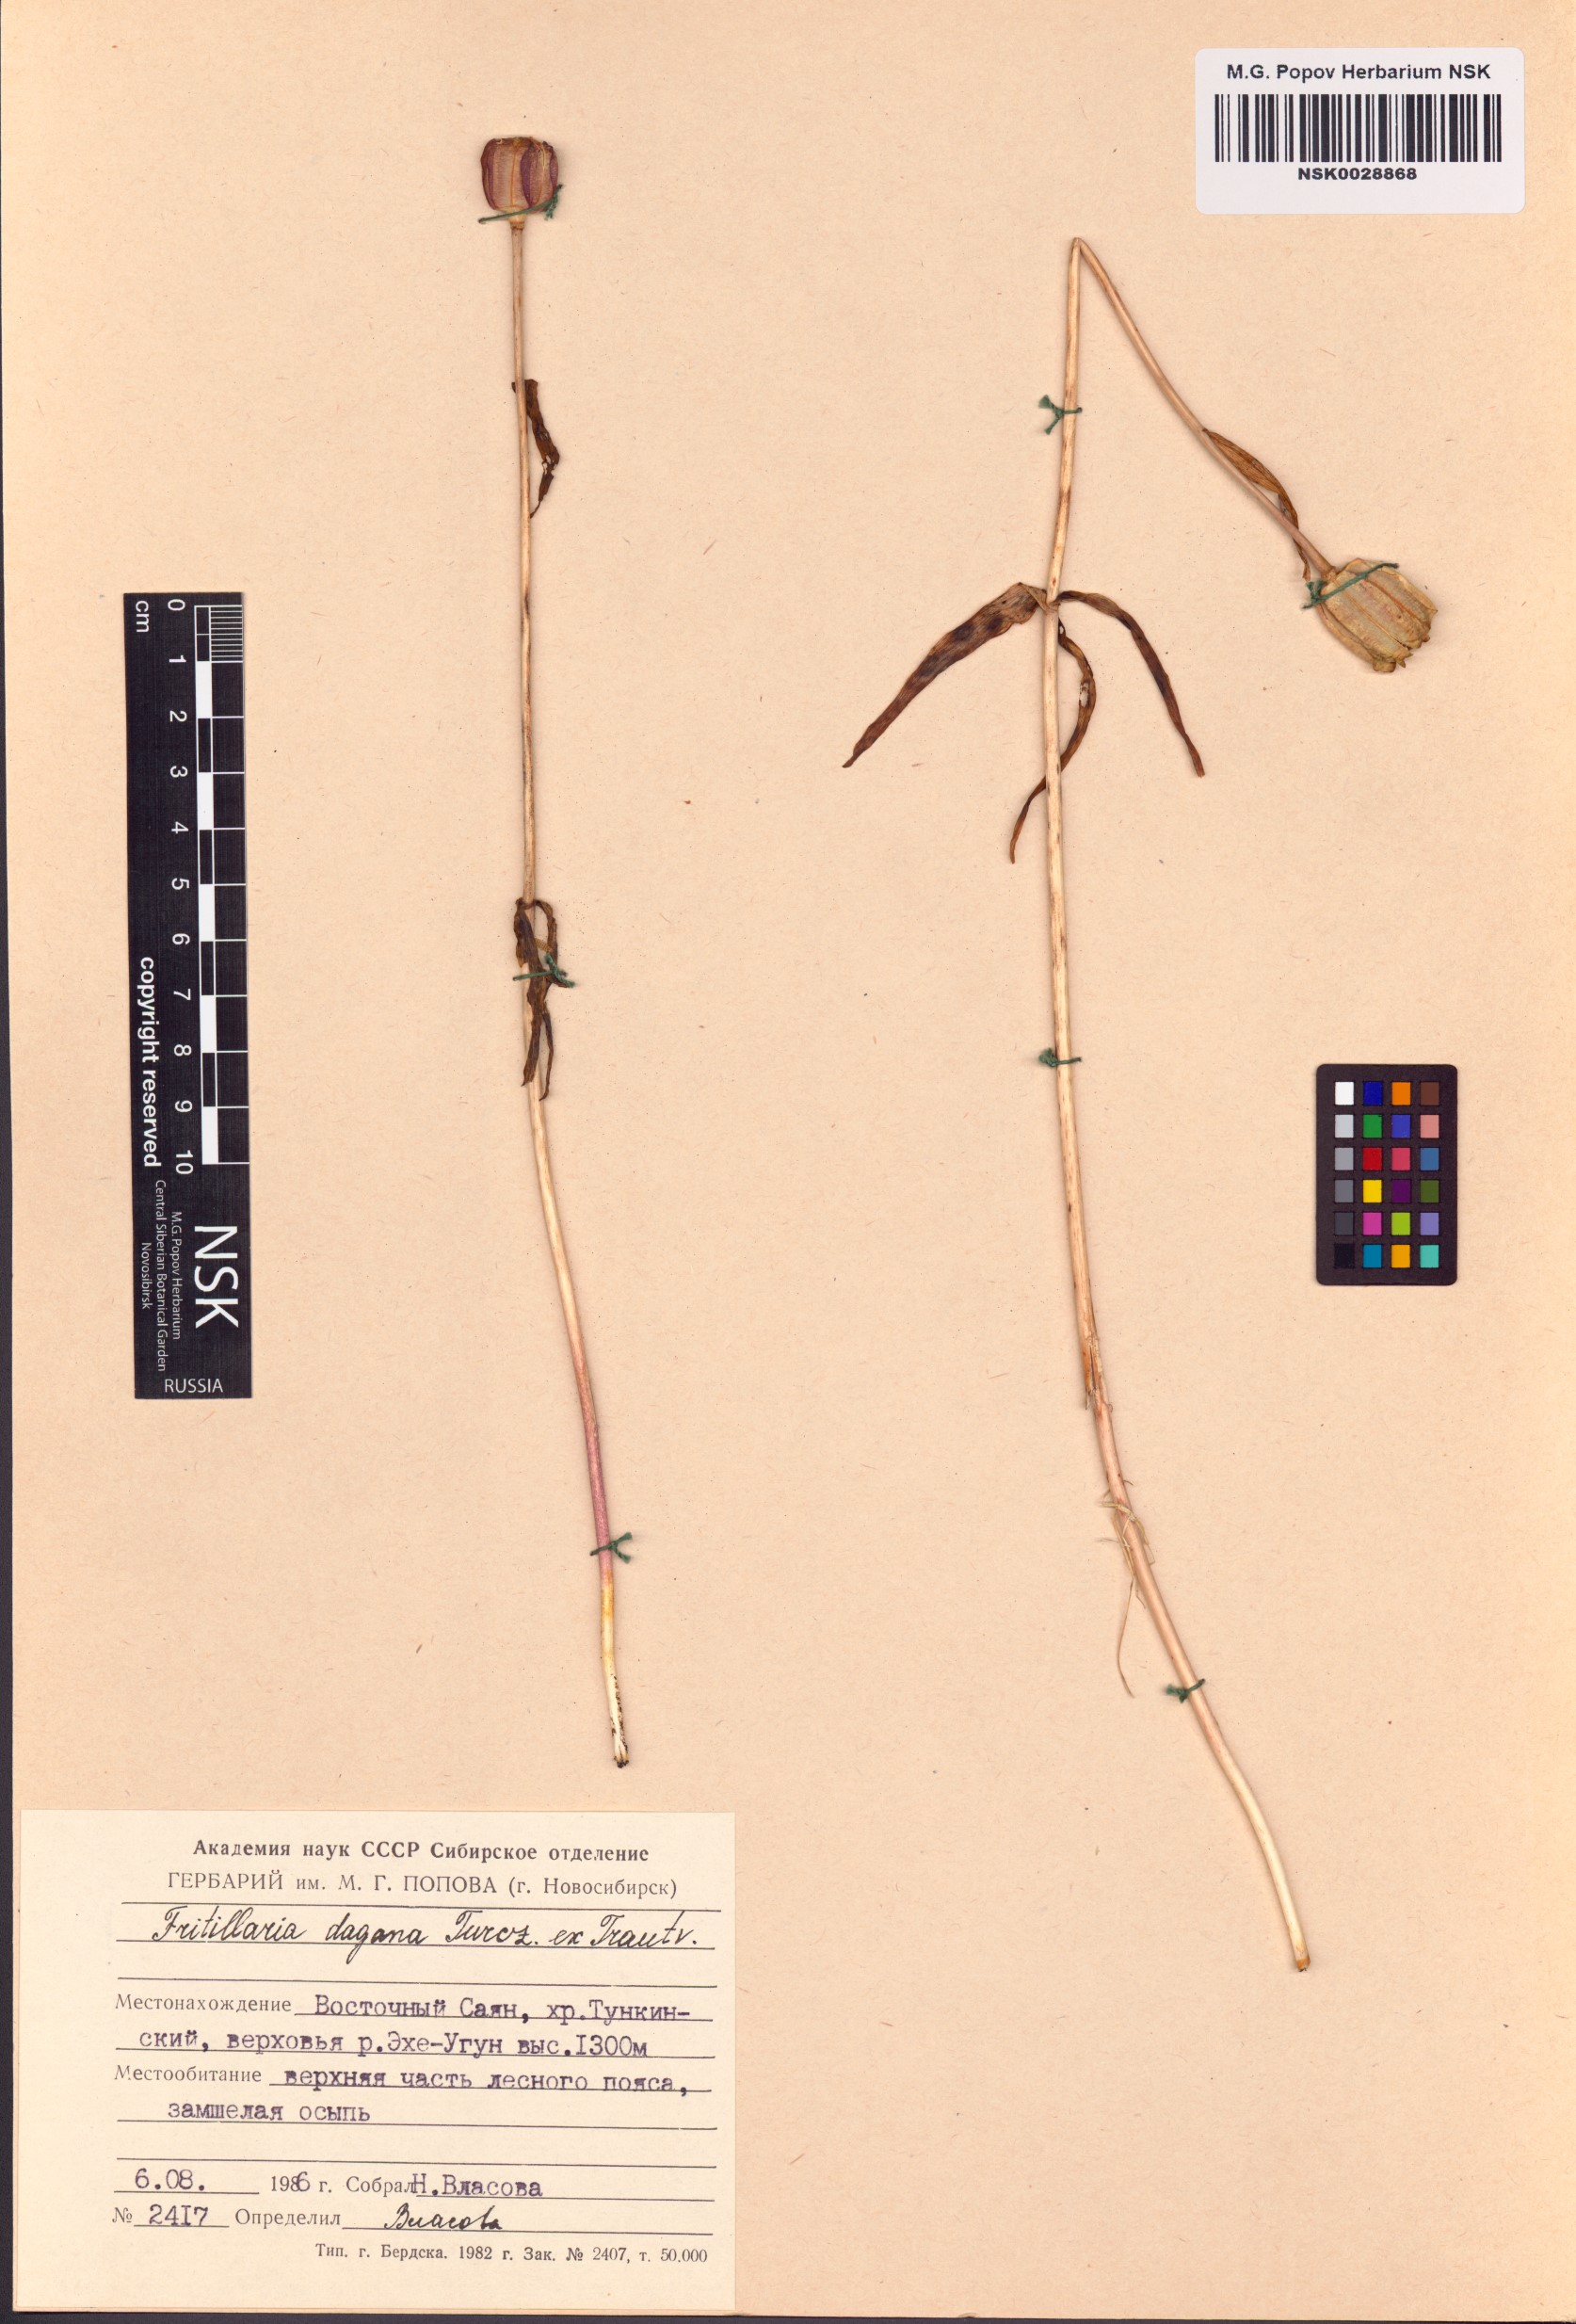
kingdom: Plantae
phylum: Tracheophyta
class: Liliopsida
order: Liliales
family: Liliaceae
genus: Fritillaria
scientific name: Fritillaria dagana
